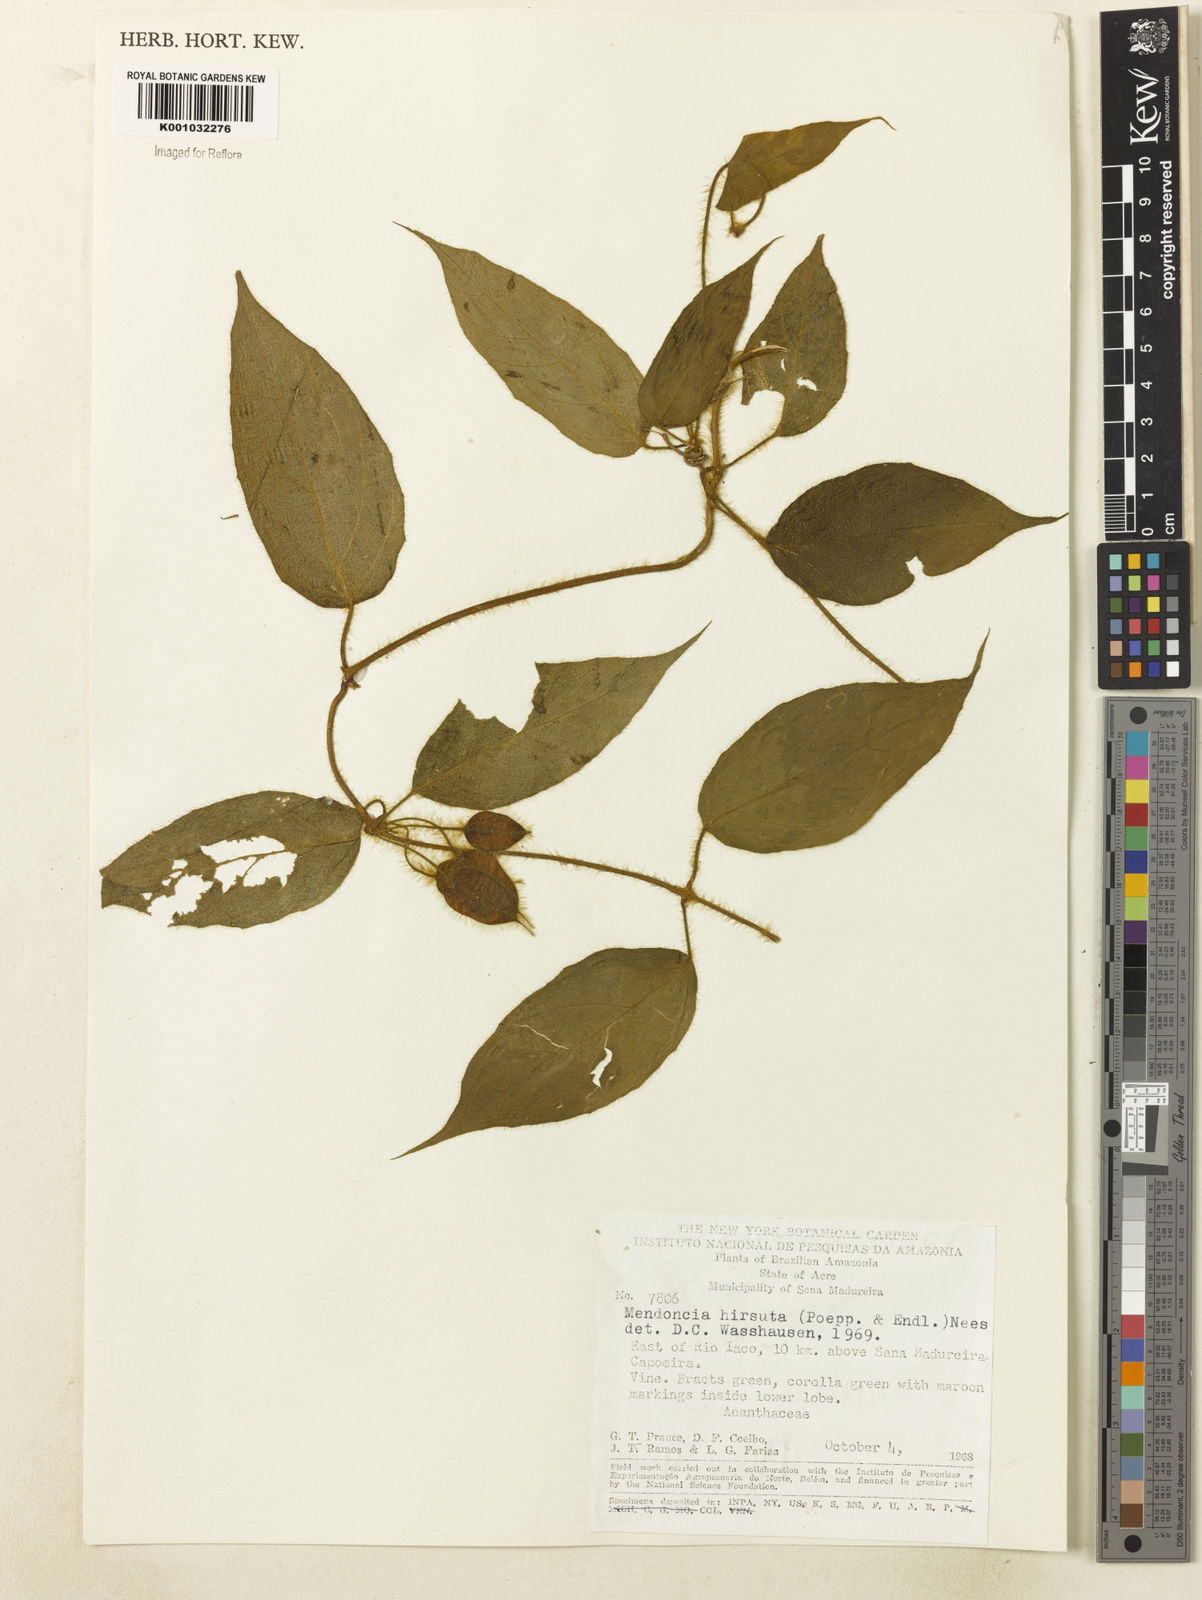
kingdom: Plantae
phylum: Tracheophyta
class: Magnoliopsida
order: Lamiales
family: Acanthaceae
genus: Mendoncia
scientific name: Mendoncia
